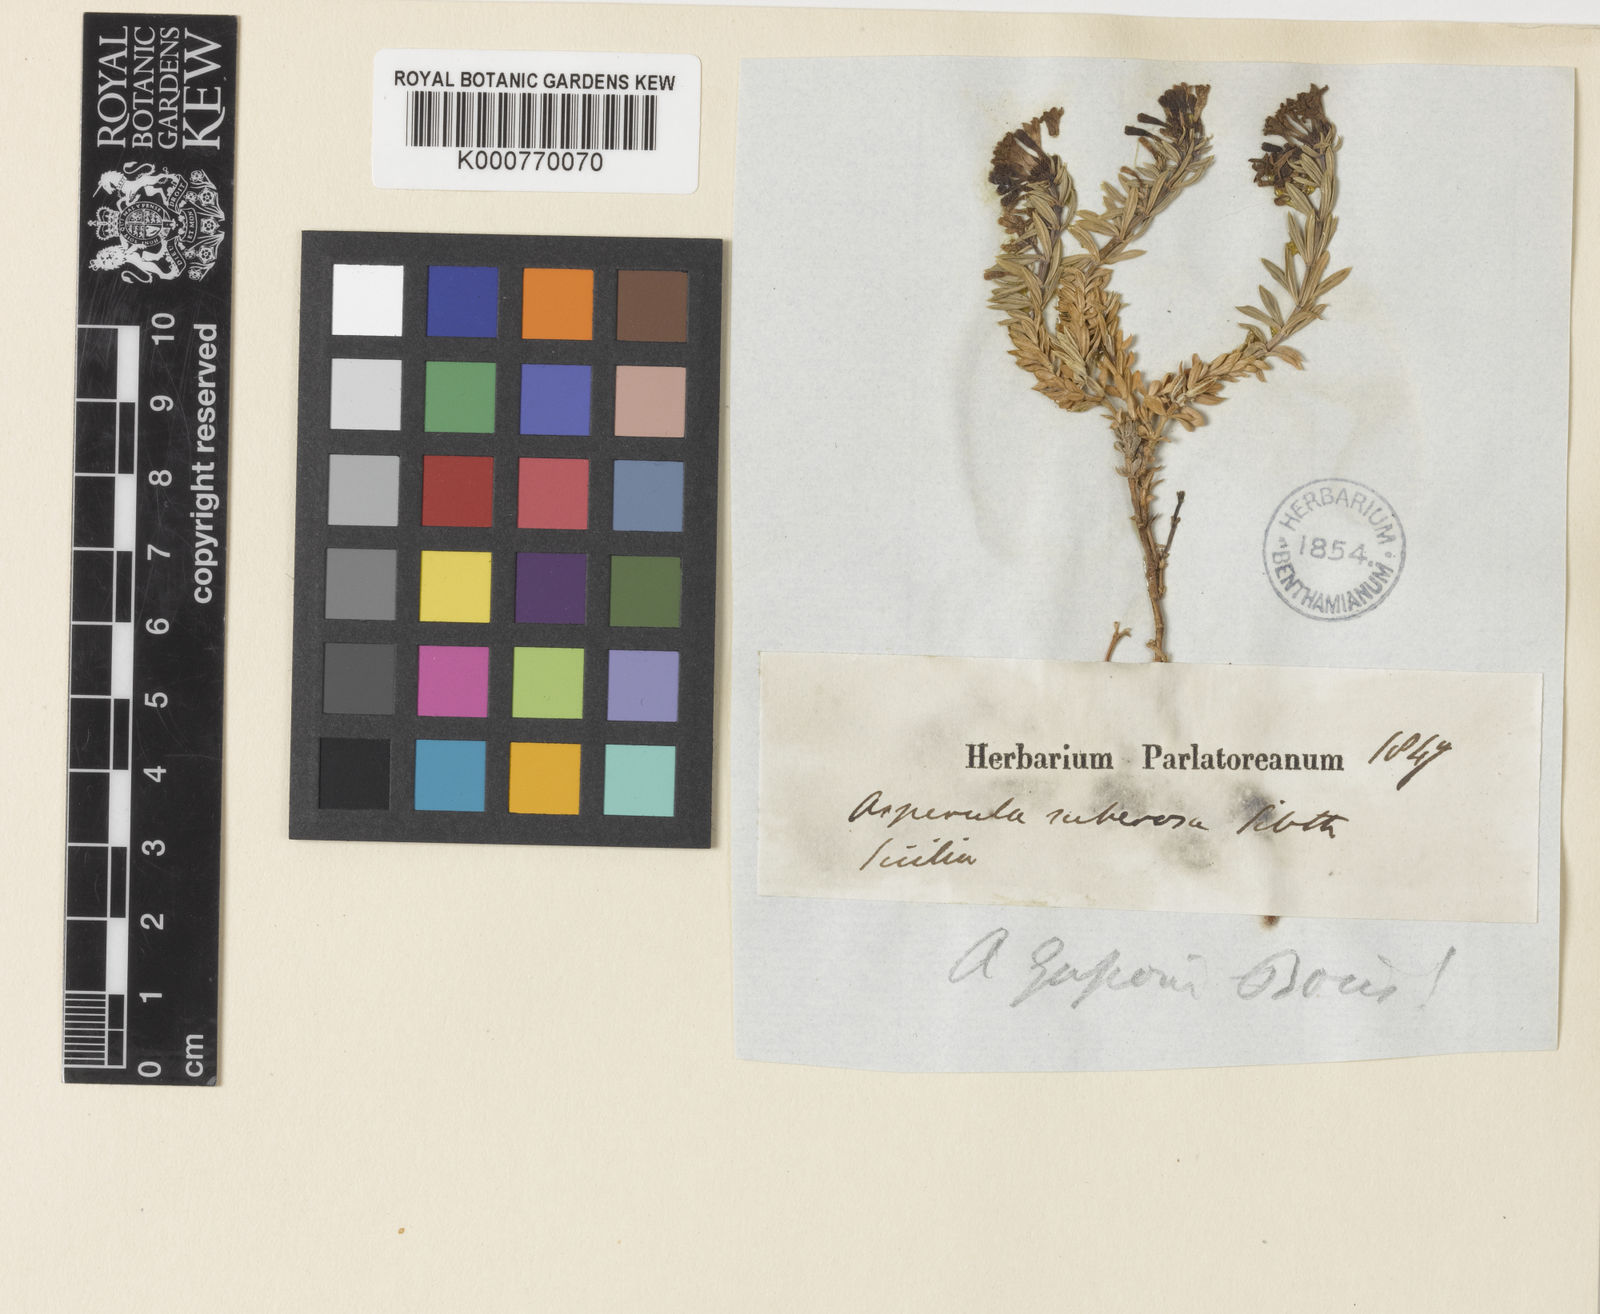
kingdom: Plantae
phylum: Tracheophyta
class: Magnoliopsida
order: Gentianales
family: Rubiaceae
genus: Cynanchica
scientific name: Cynanchica gussonei
